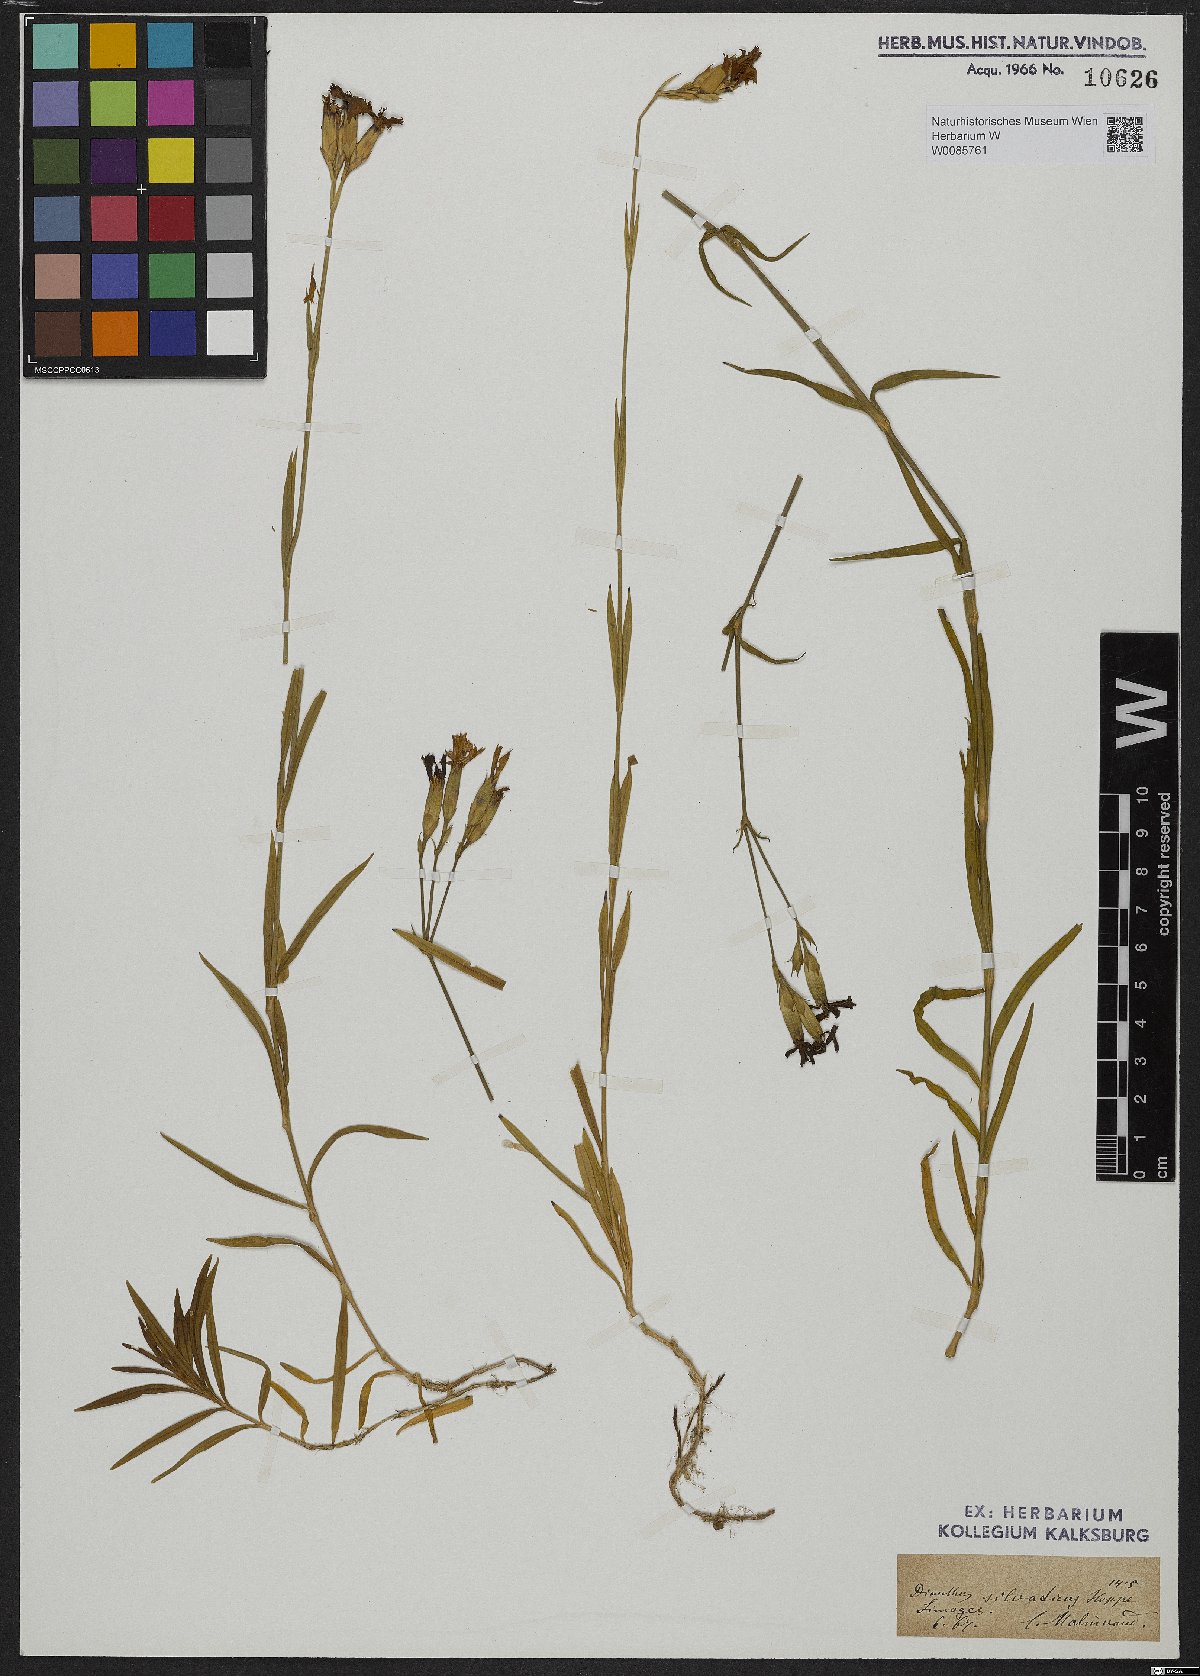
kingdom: Plantae
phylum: Tracheophyta
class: Magnoliopsida
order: Caryophyllales
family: Caryophyllaceae
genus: Dianthus
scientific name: Dianthus seguieri
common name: Ragged pink
